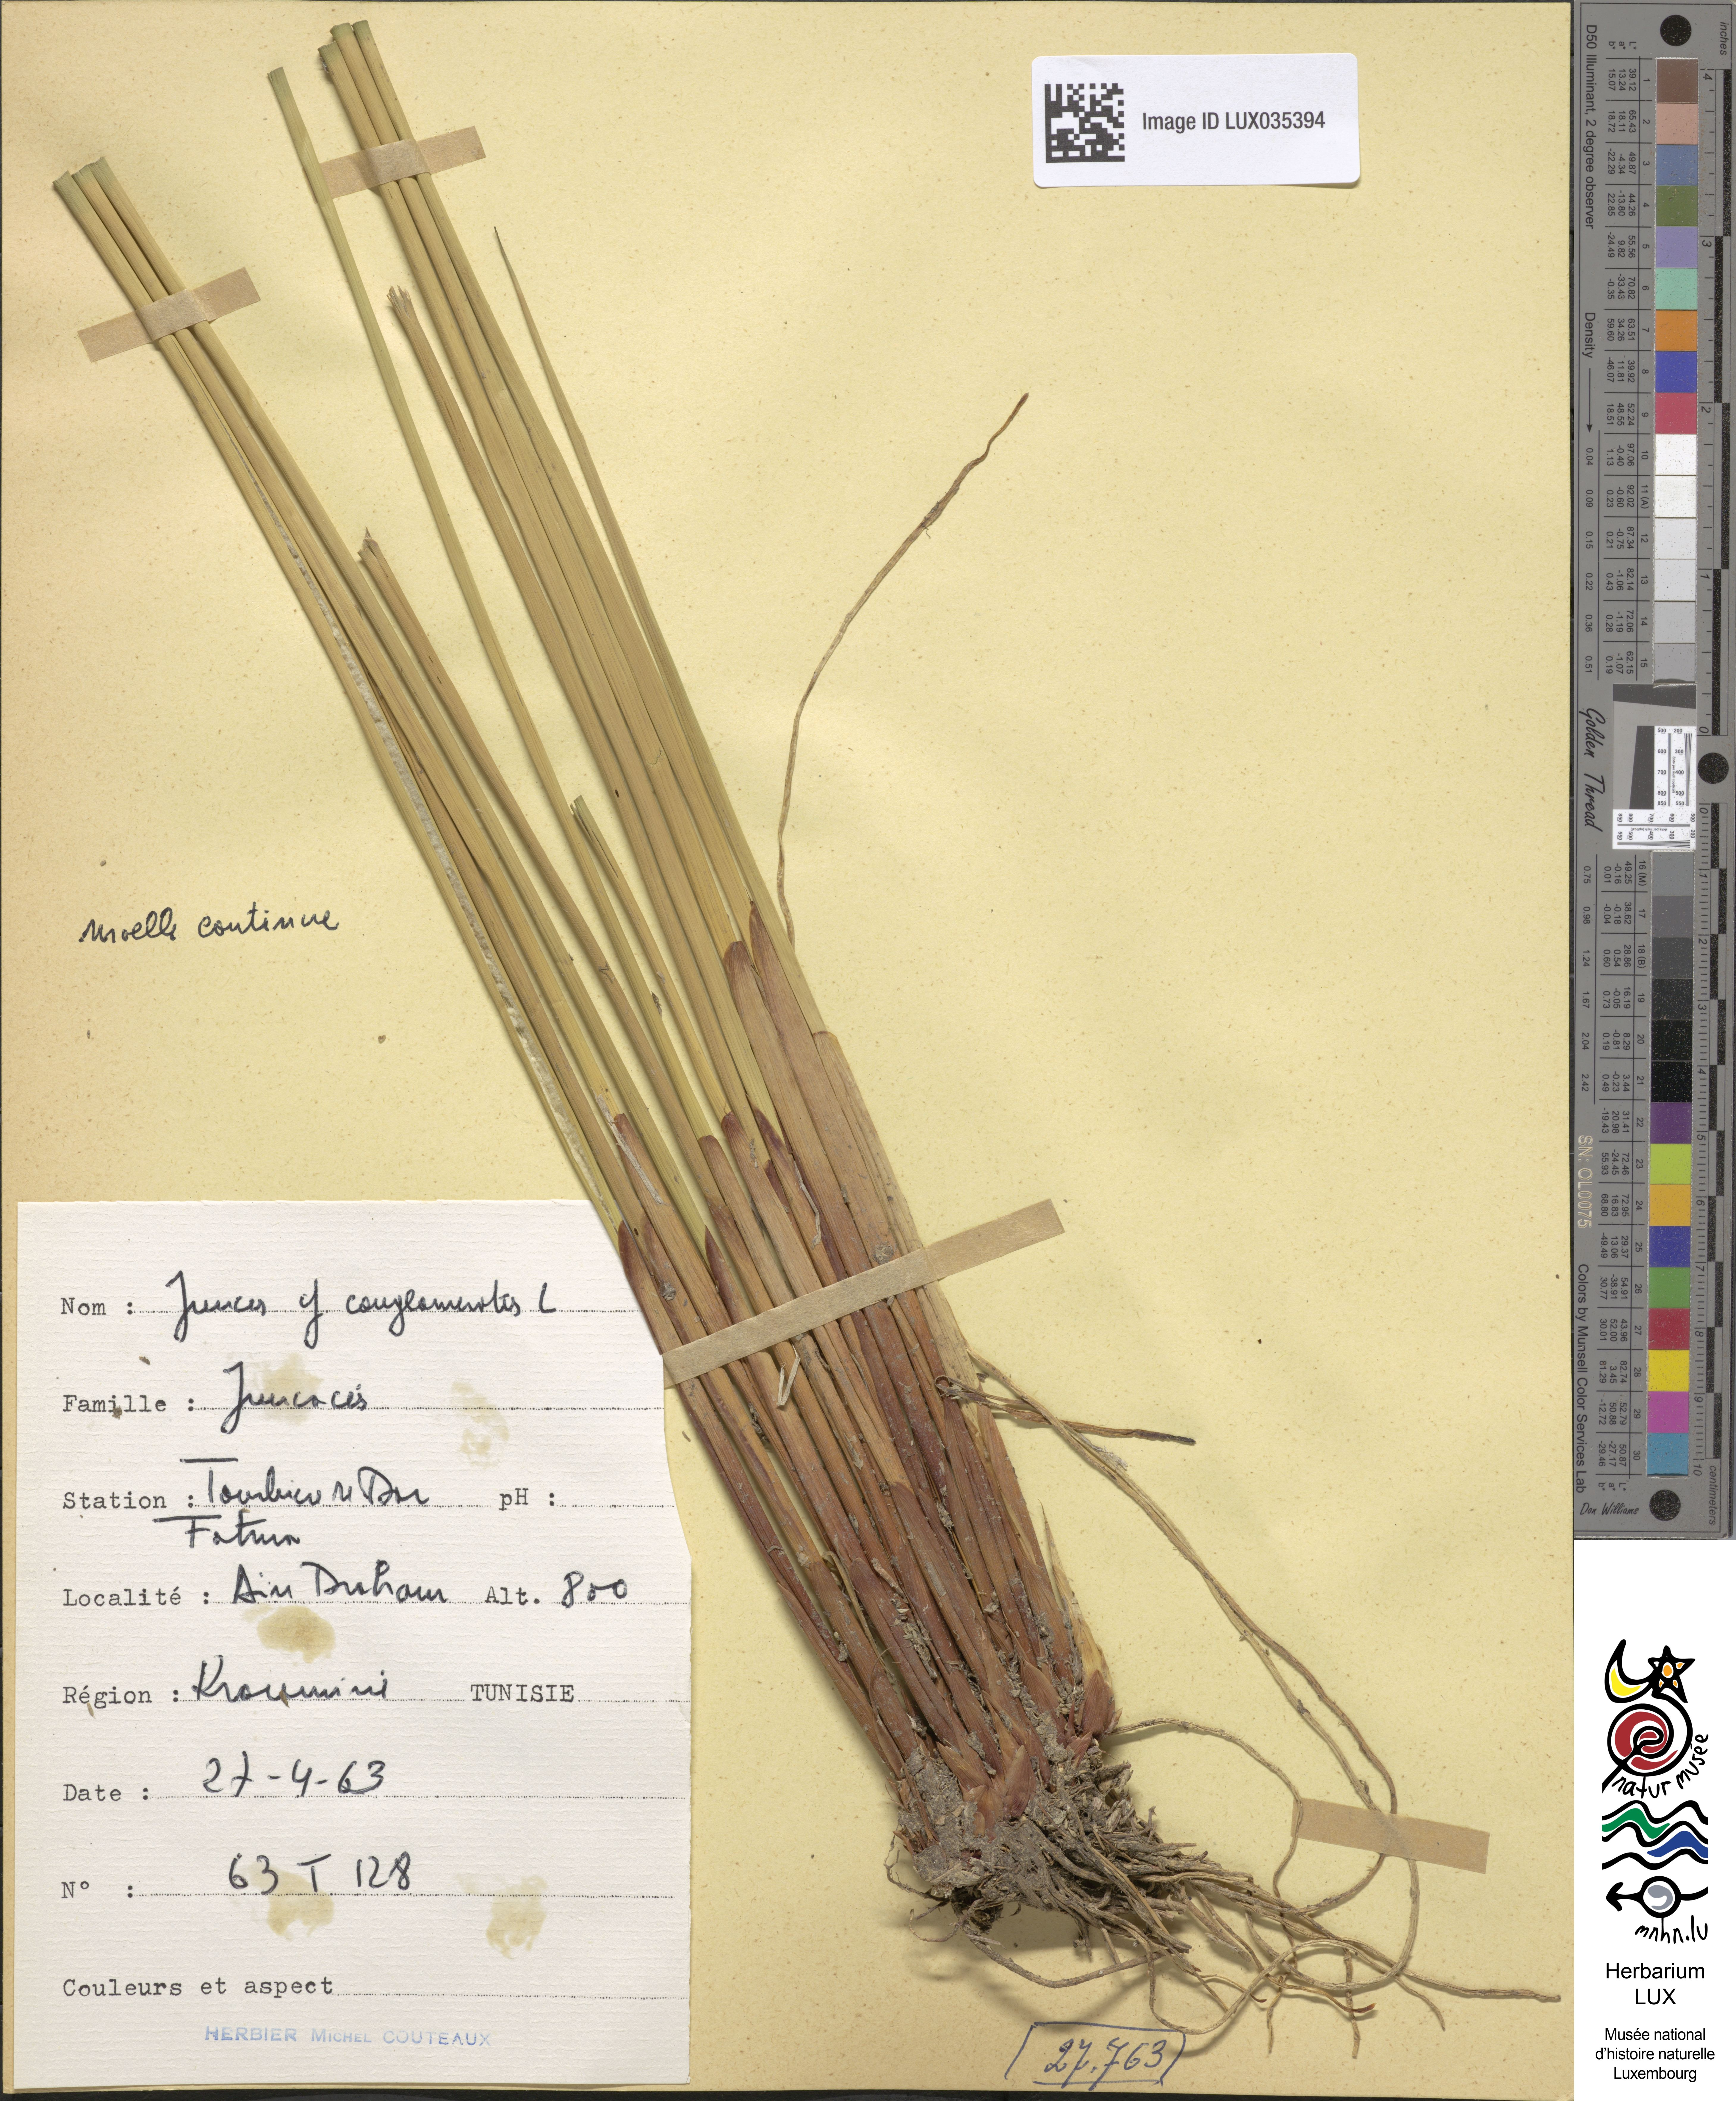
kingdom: Plantae
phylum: Tracheophyta
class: Liliopsida
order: Poales
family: Juncaceae
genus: Juncus
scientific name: Juncus conglomeratus
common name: Compact rush
